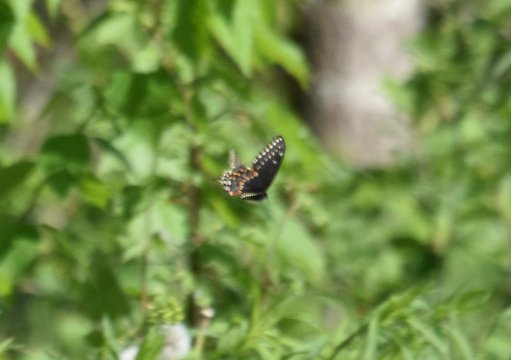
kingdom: Animalia
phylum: Arthropoda
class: Insecta
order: Lepidoptera
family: Papilionidae
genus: Papilio
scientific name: Papilio polyxenes
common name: Black Swallowtail
